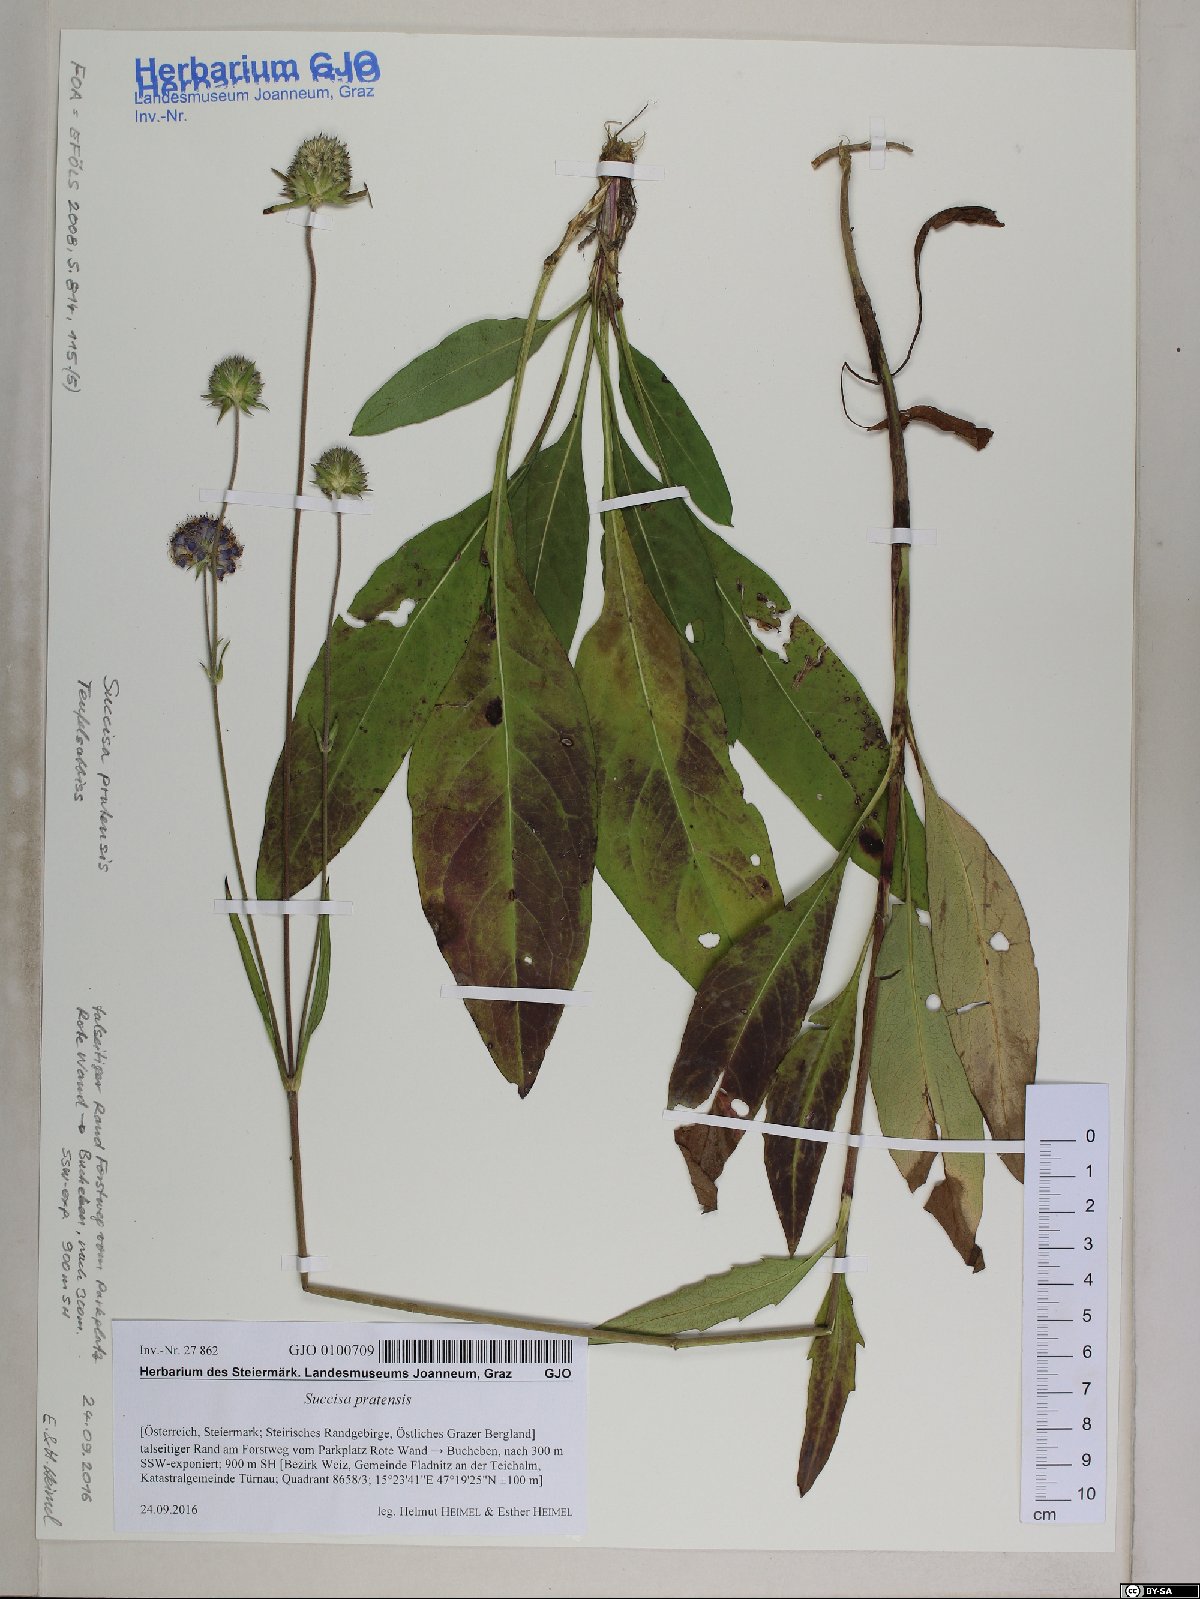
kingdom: Plantae
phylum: Tracheophyta
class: Magnoliopsida
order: Dipsacales
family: Caprifoliaceae
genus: Succisa
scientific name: Succisa pratensis
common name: Devil's-bit
